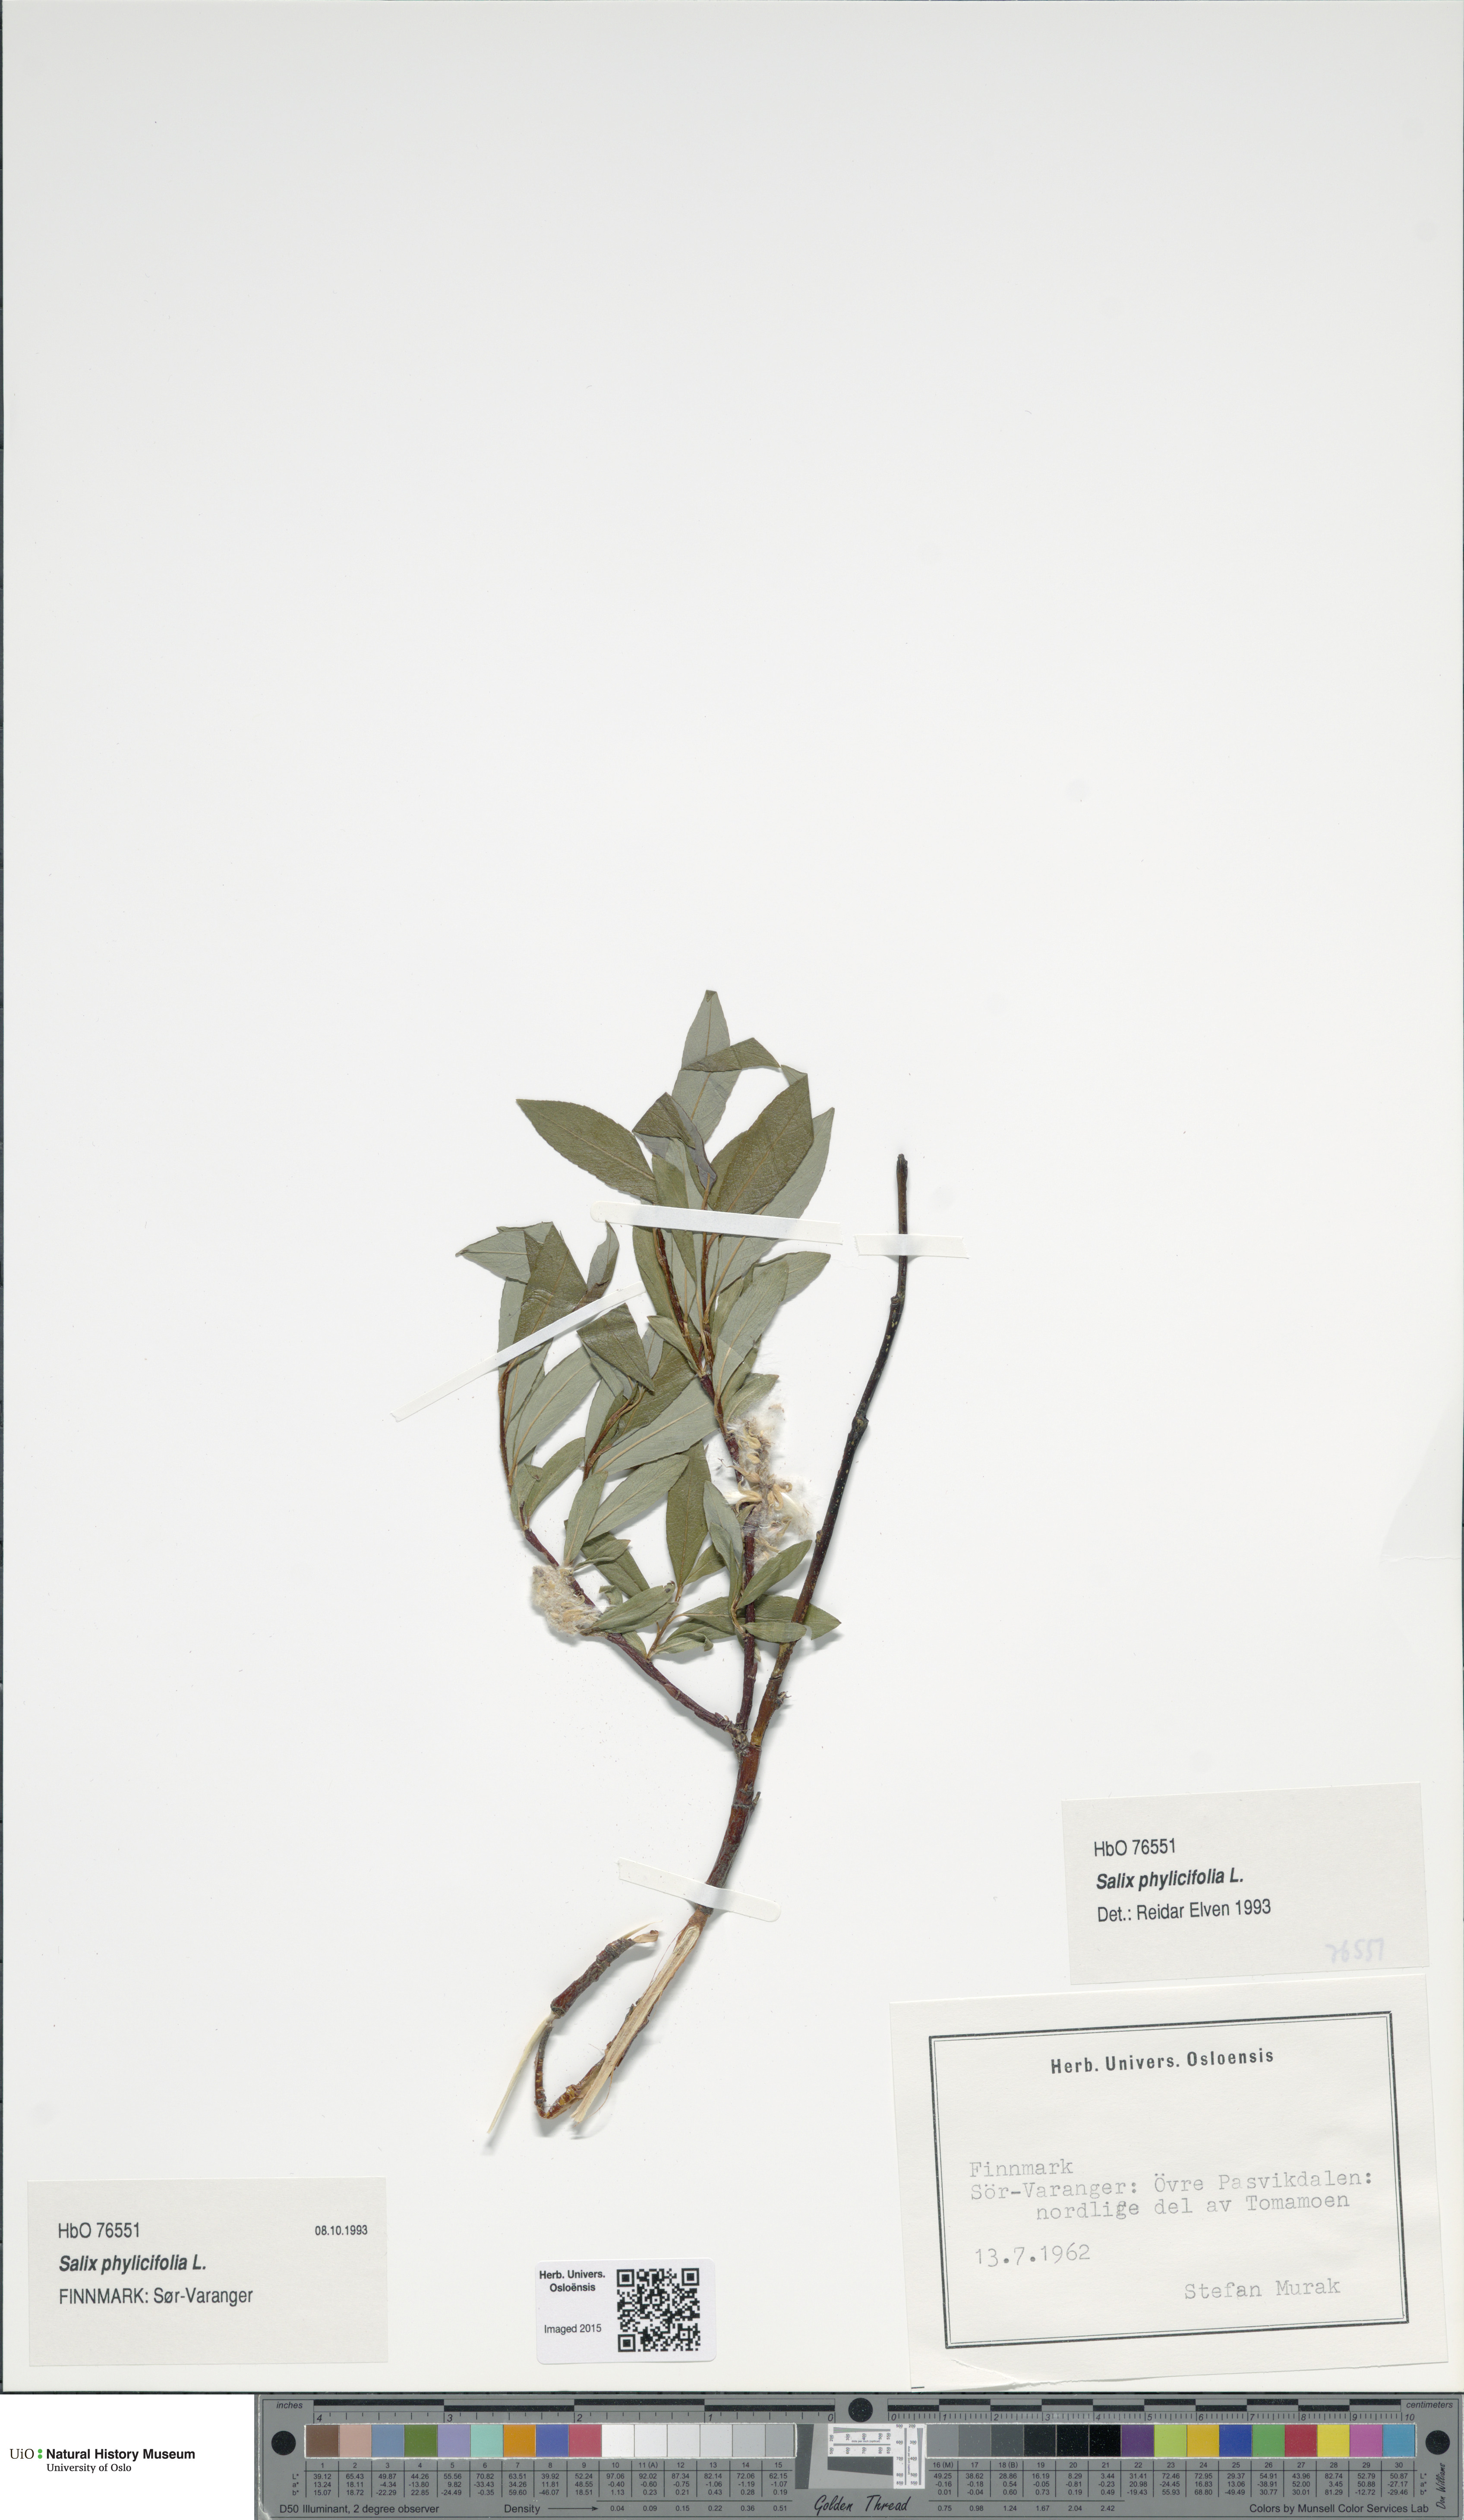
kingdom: Plantae
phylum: Tracheophyta
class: Magnoliopsida
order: Malpighiales
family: Salicaceae
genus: Salix
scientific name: Salix phylicifolia
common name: Tea-leaved willow
